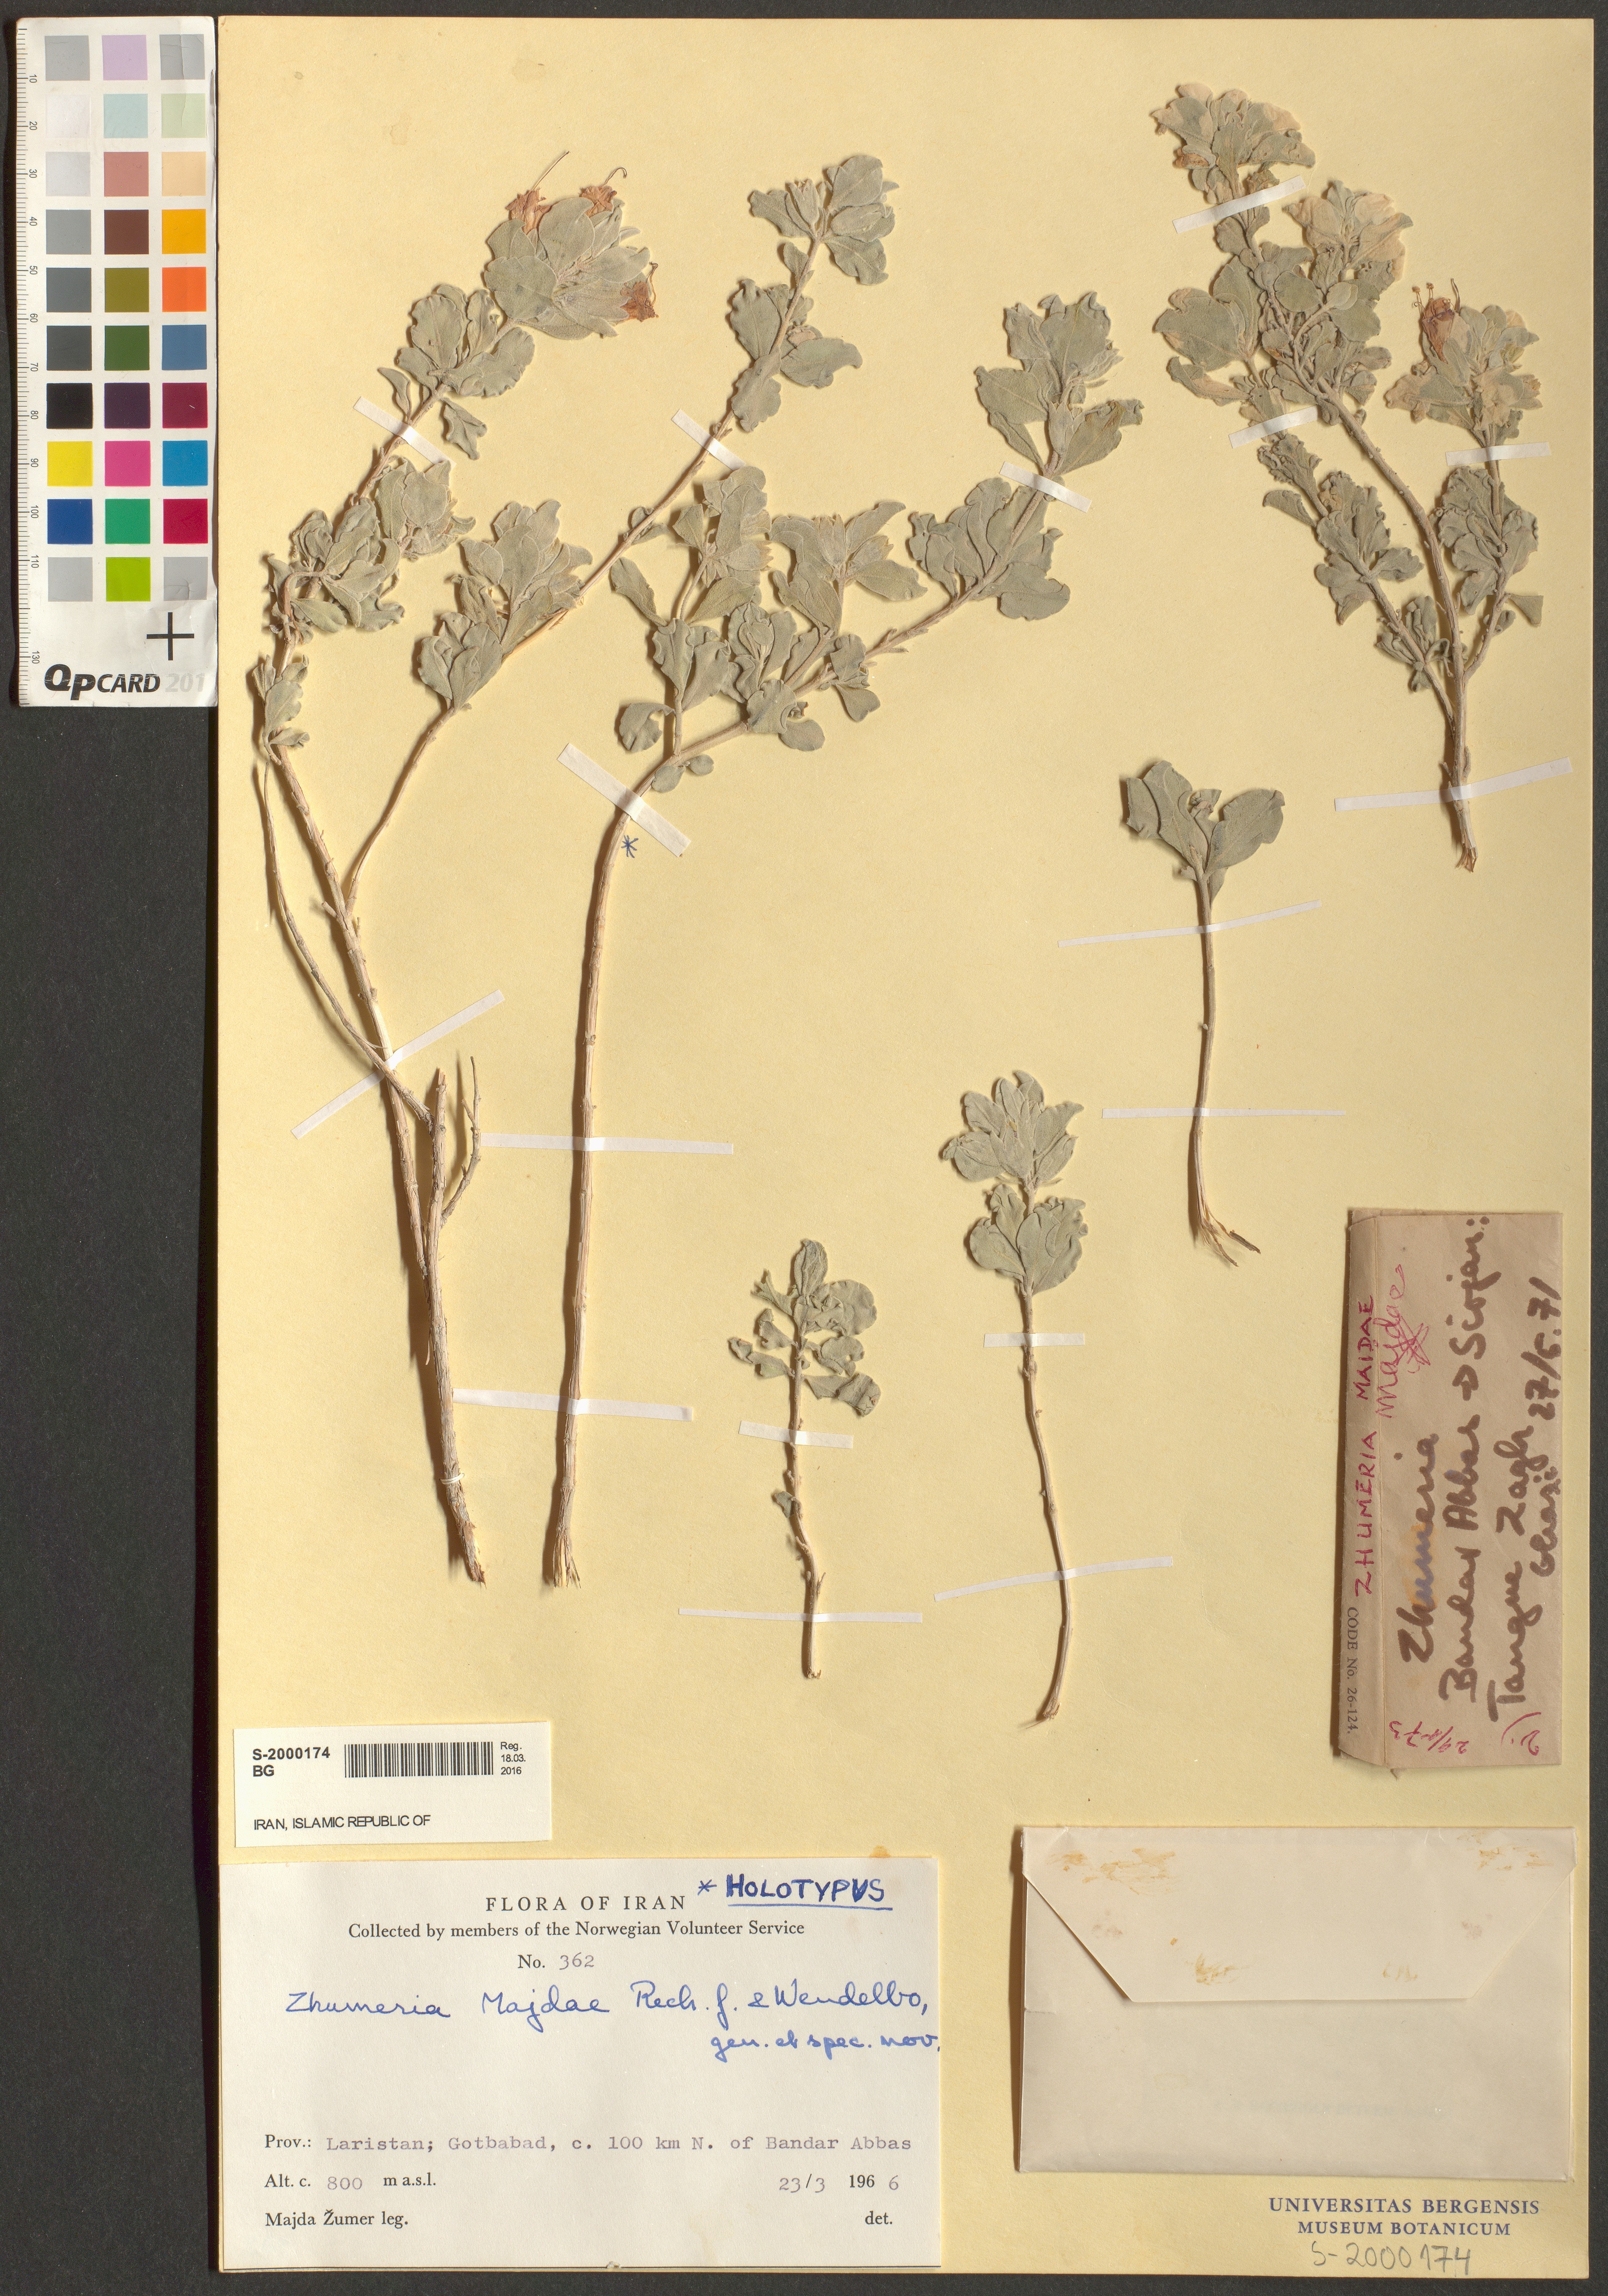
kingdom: Plantae
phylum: Tracheophyta
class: Magnoliopsida
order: Lamiales
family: Lamiaceae
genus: Salvia
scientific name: Salvia majdae
